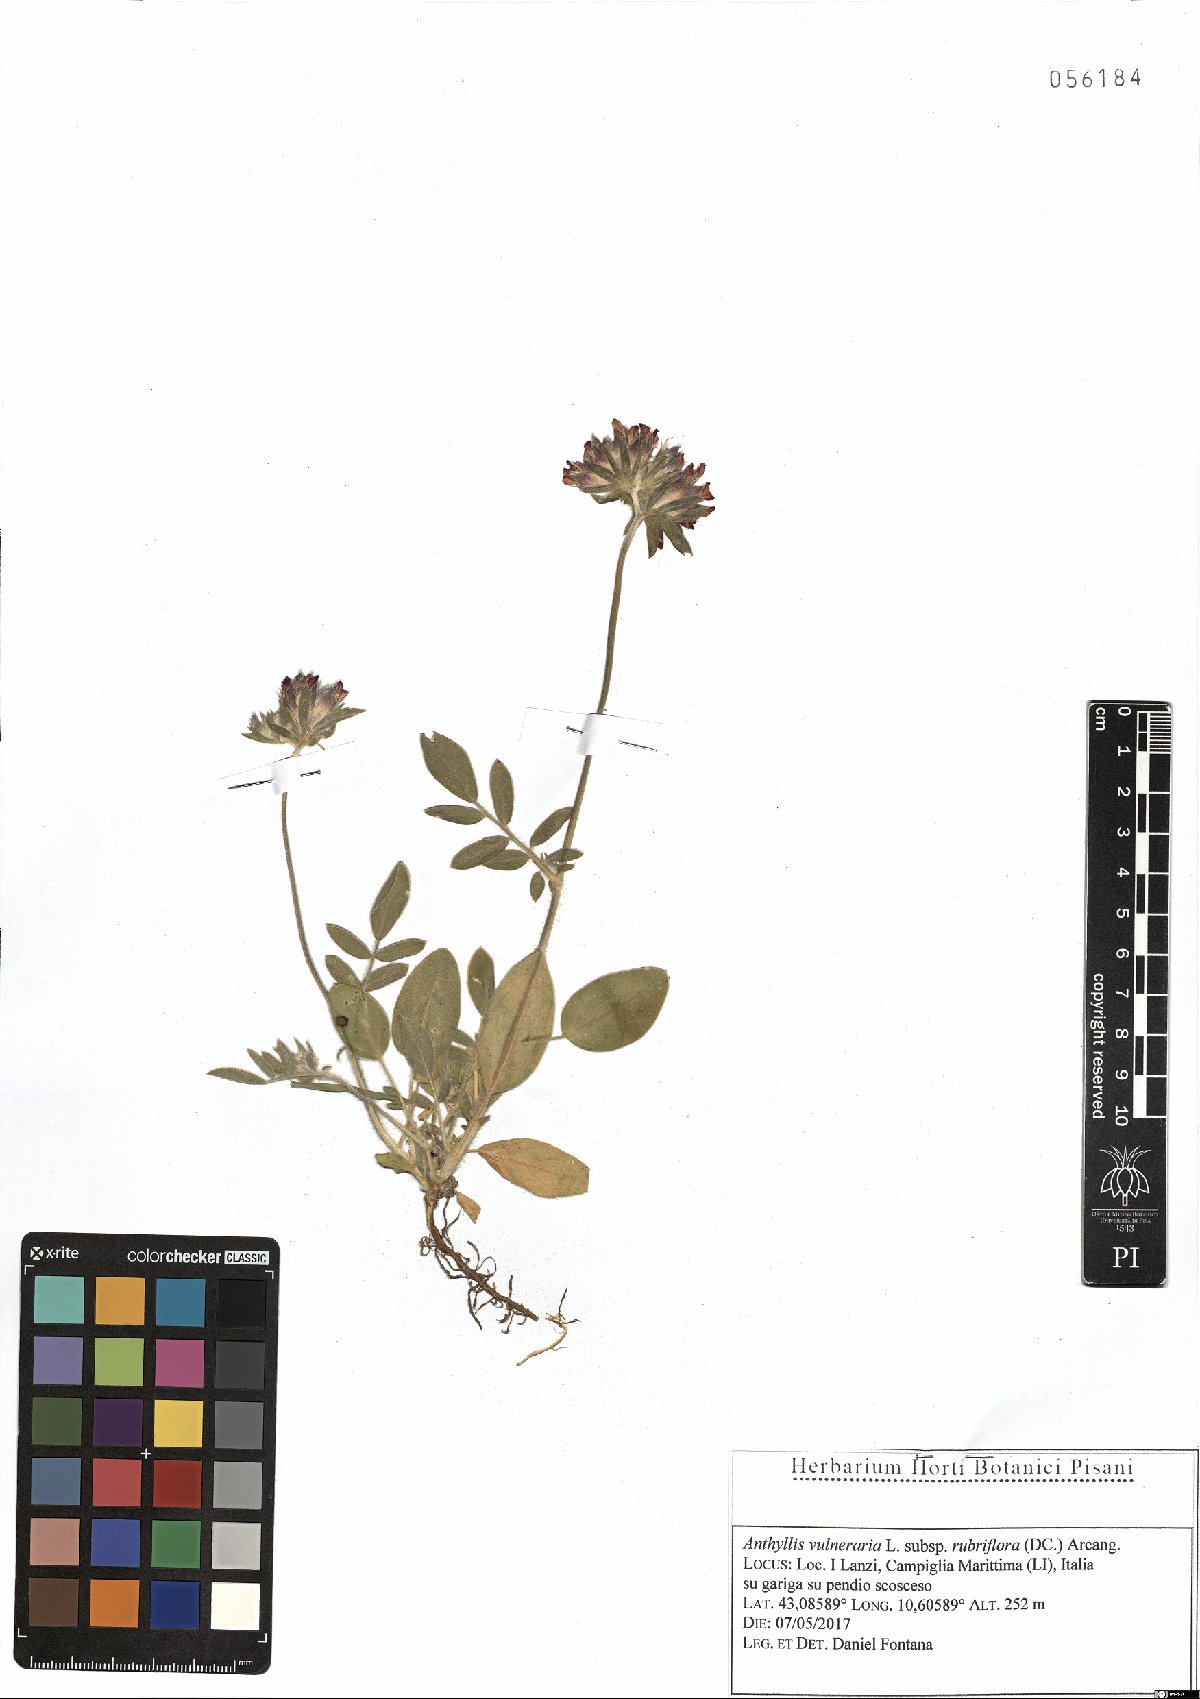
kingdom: Plantae
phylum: Tracheophyta
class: Magnoliopsida
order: Fabales
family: Fabaceae
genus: Anthyllis
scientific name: Anthyllis vulneraria
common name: Kidney vetch
